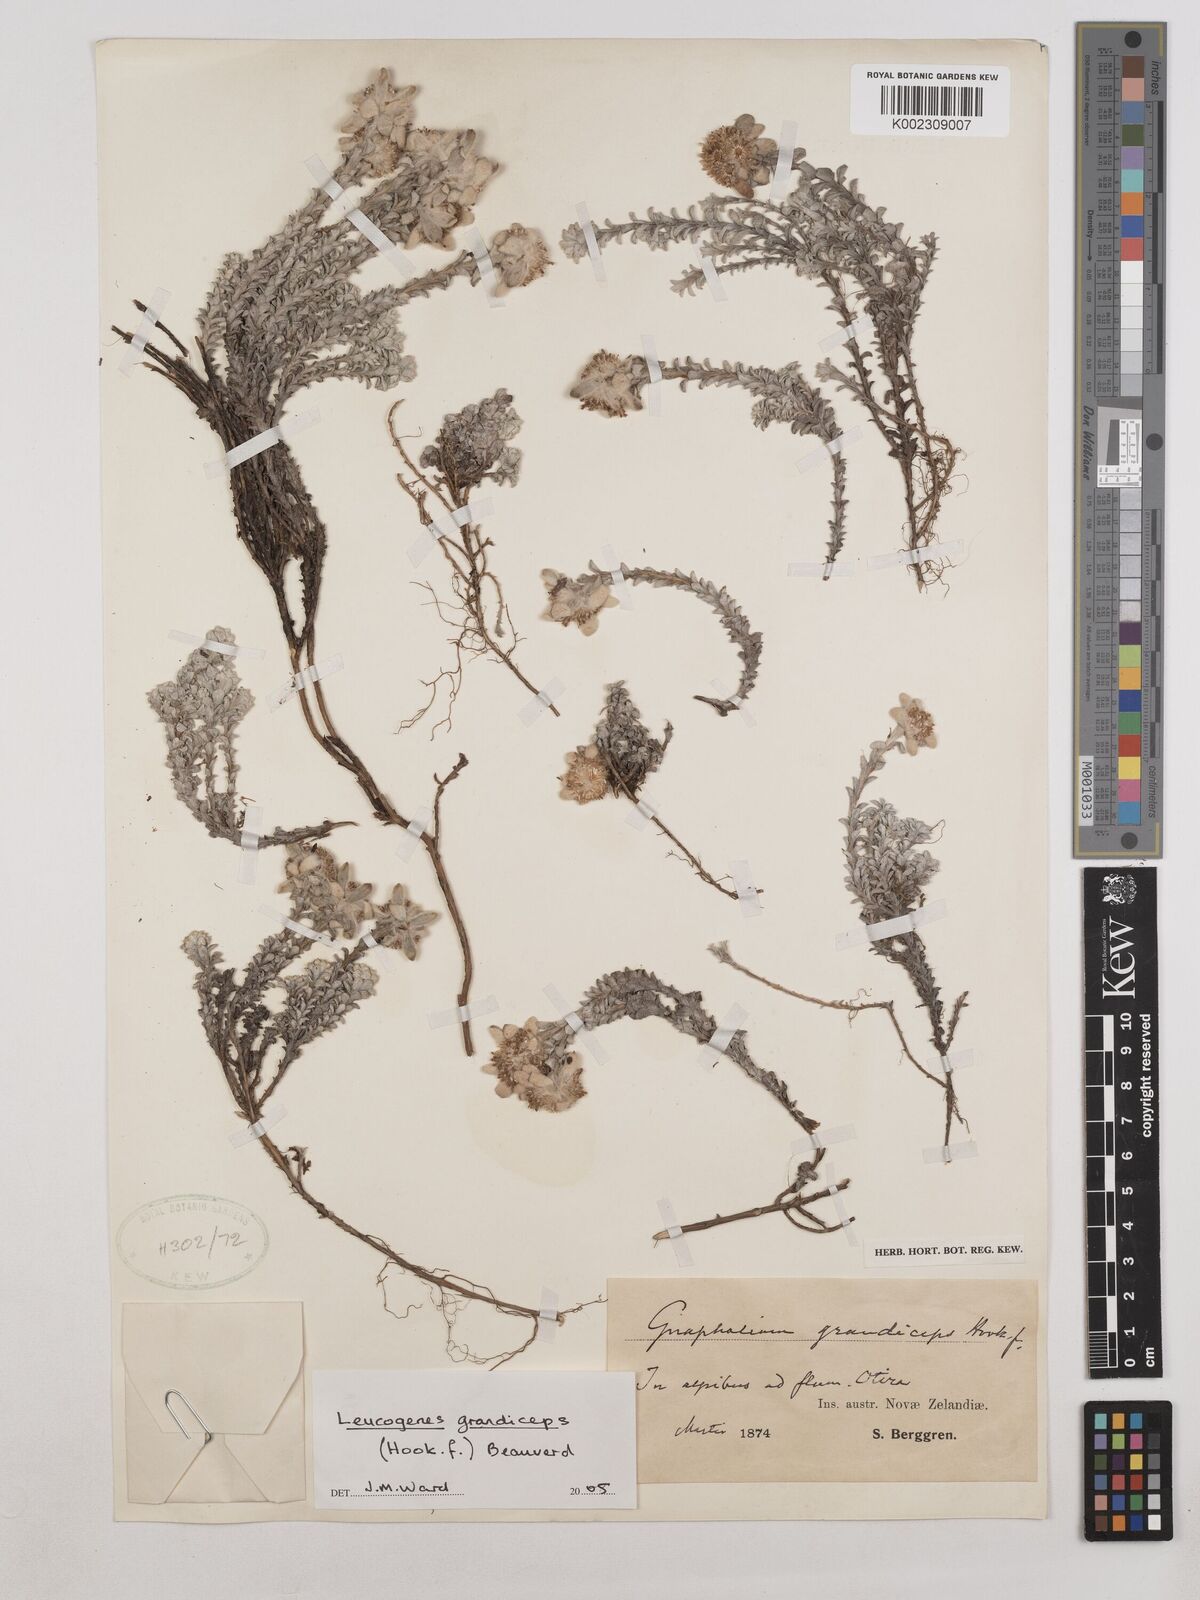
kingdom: Plantae
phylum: Tracheophyta
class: Magnoliopsida
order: Asterales
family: Asteraceae
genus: Leucogenes
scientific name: Leucogenes grandiceps
